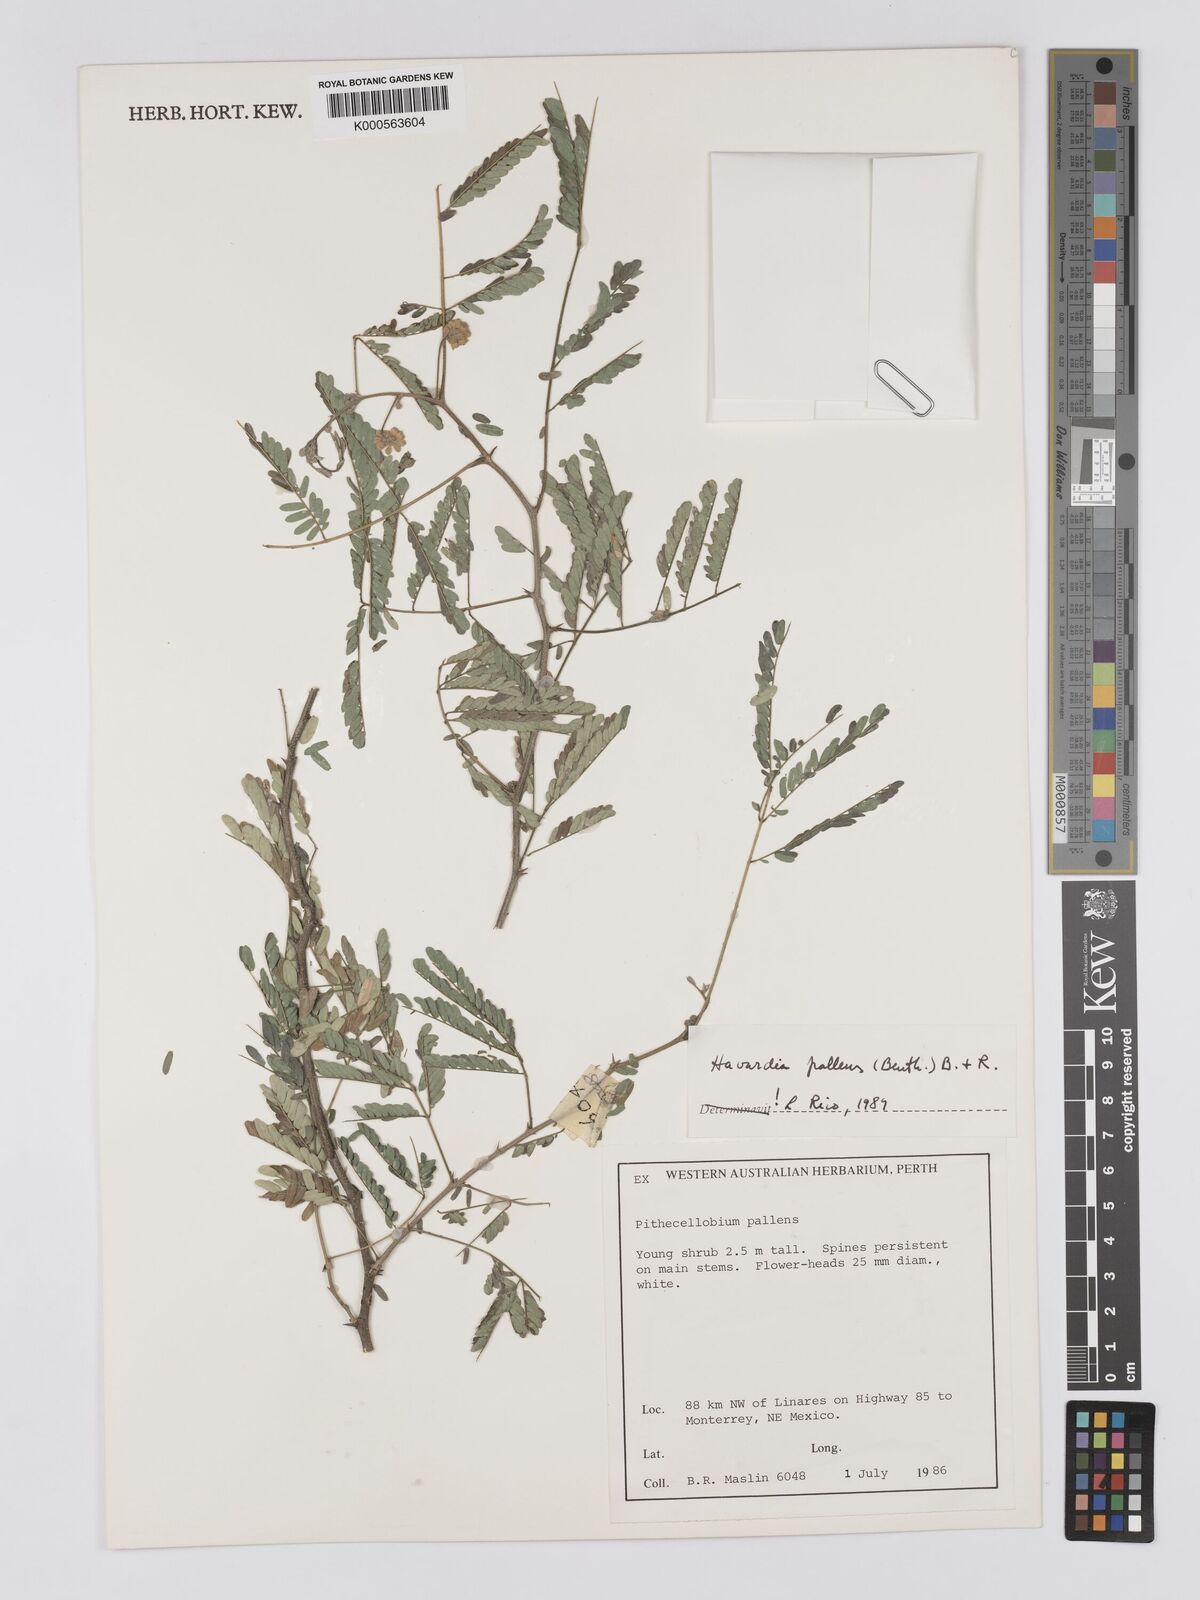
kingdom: Plantae
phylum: Tracheophyta
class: Magnoliopsida
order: Fabales
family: Fabaceae
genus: Havardia
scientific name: Havardia albicans
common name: Huisache
